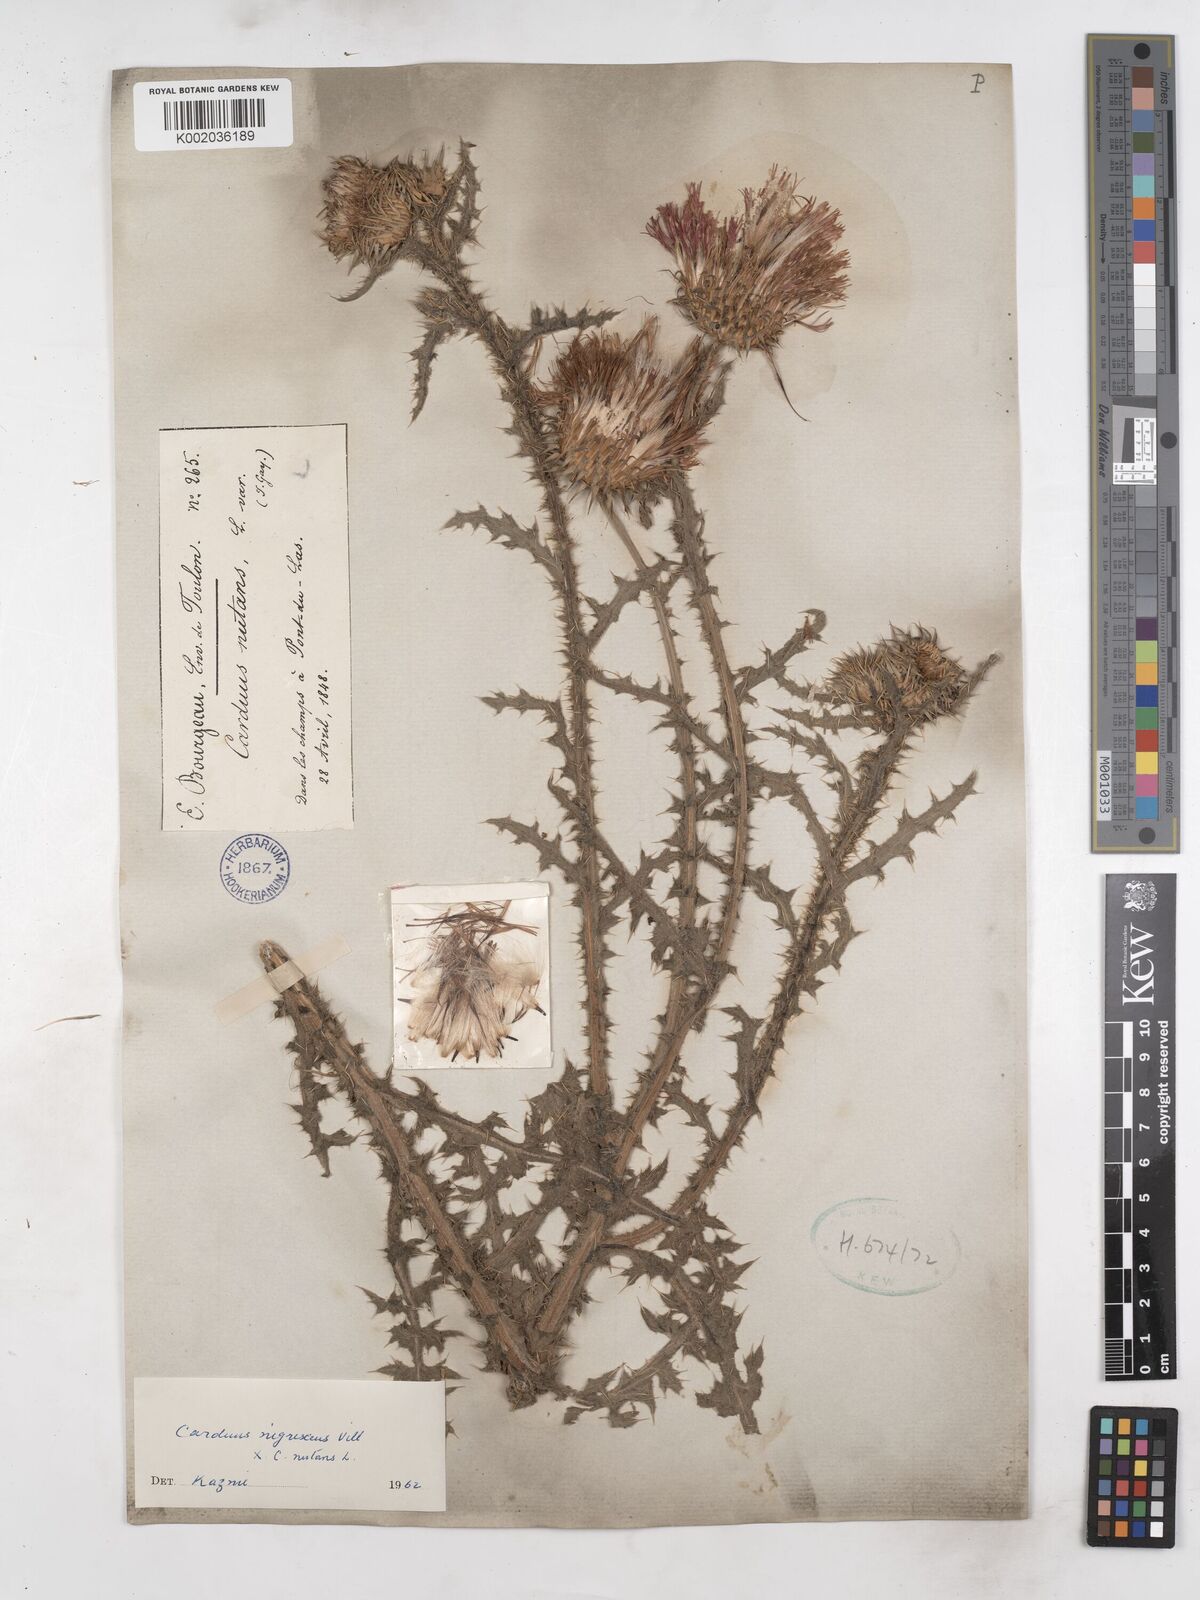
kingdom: Plantae
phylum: Tracheophyta
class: Magnoliopsida
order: Asterales
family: Asteraceae
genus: Carduus
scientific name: Carduus nigrescens
